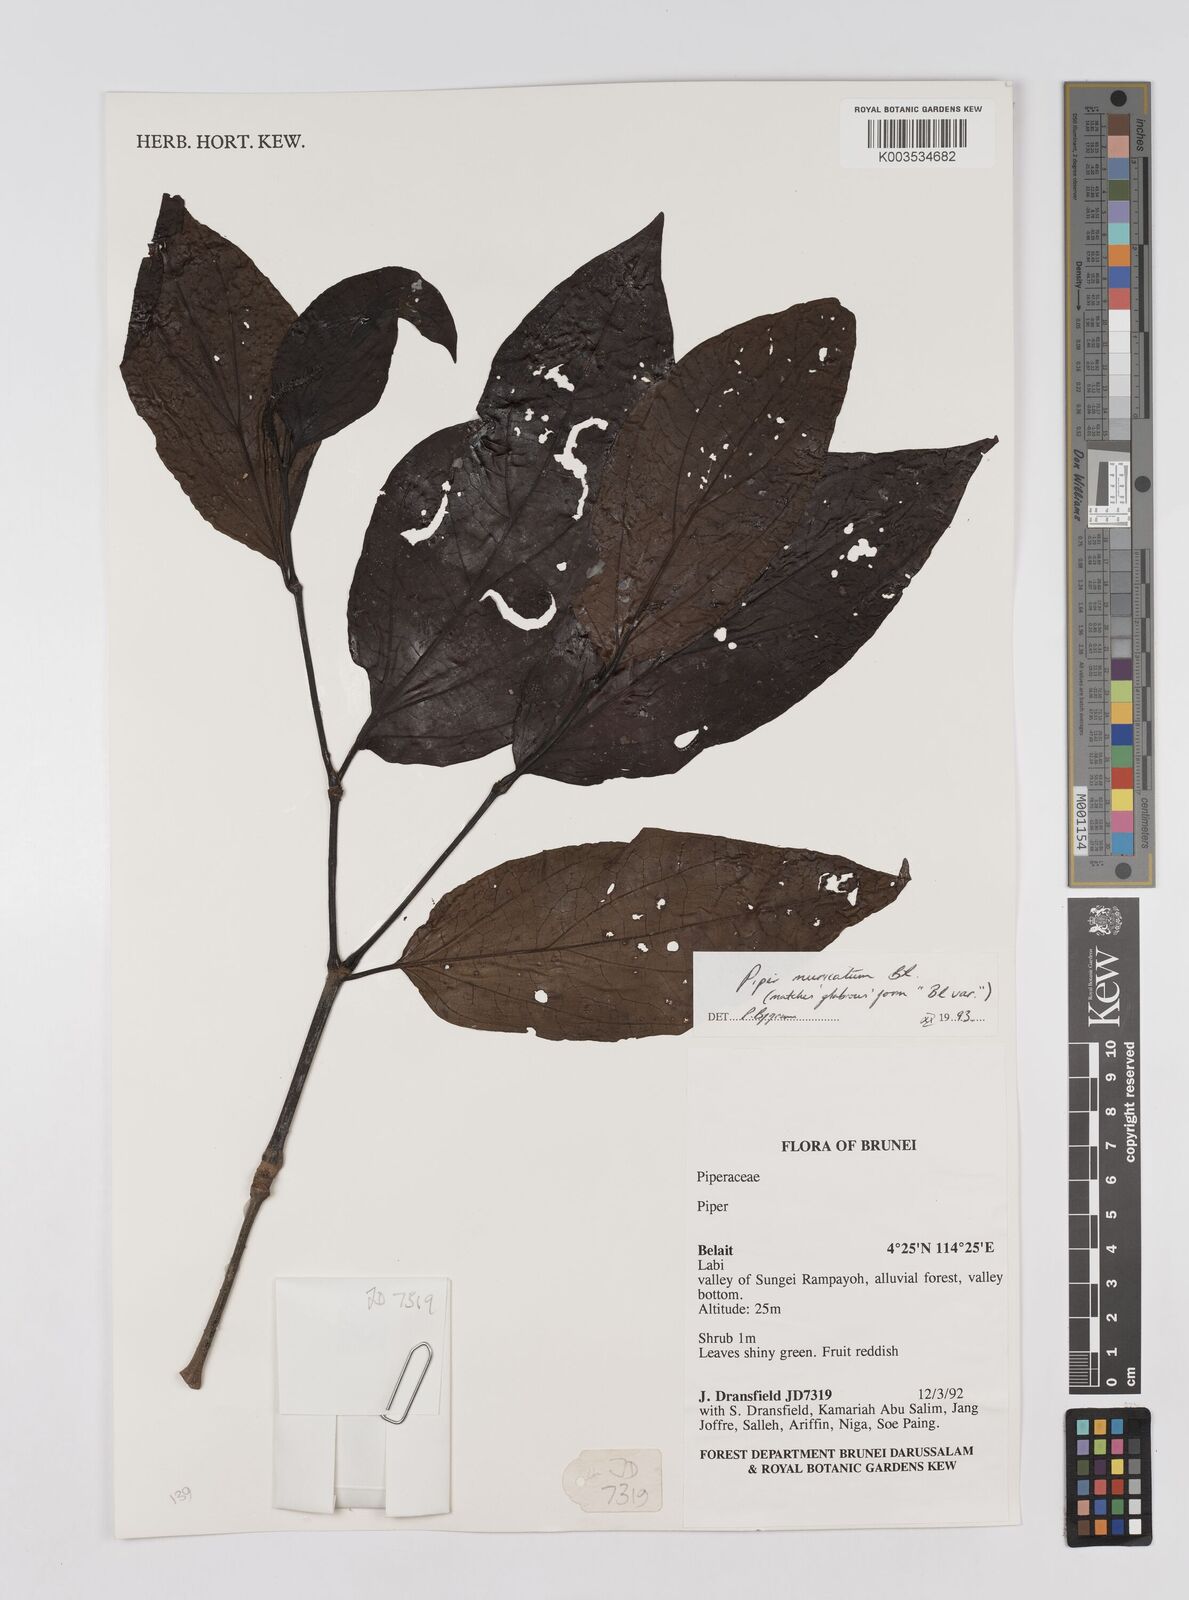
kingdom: Plantae
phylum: Tracheophyta
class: Magnoliopsida
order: Piperales
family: Piperaceae
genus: Piper
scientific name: Piper muricatum
